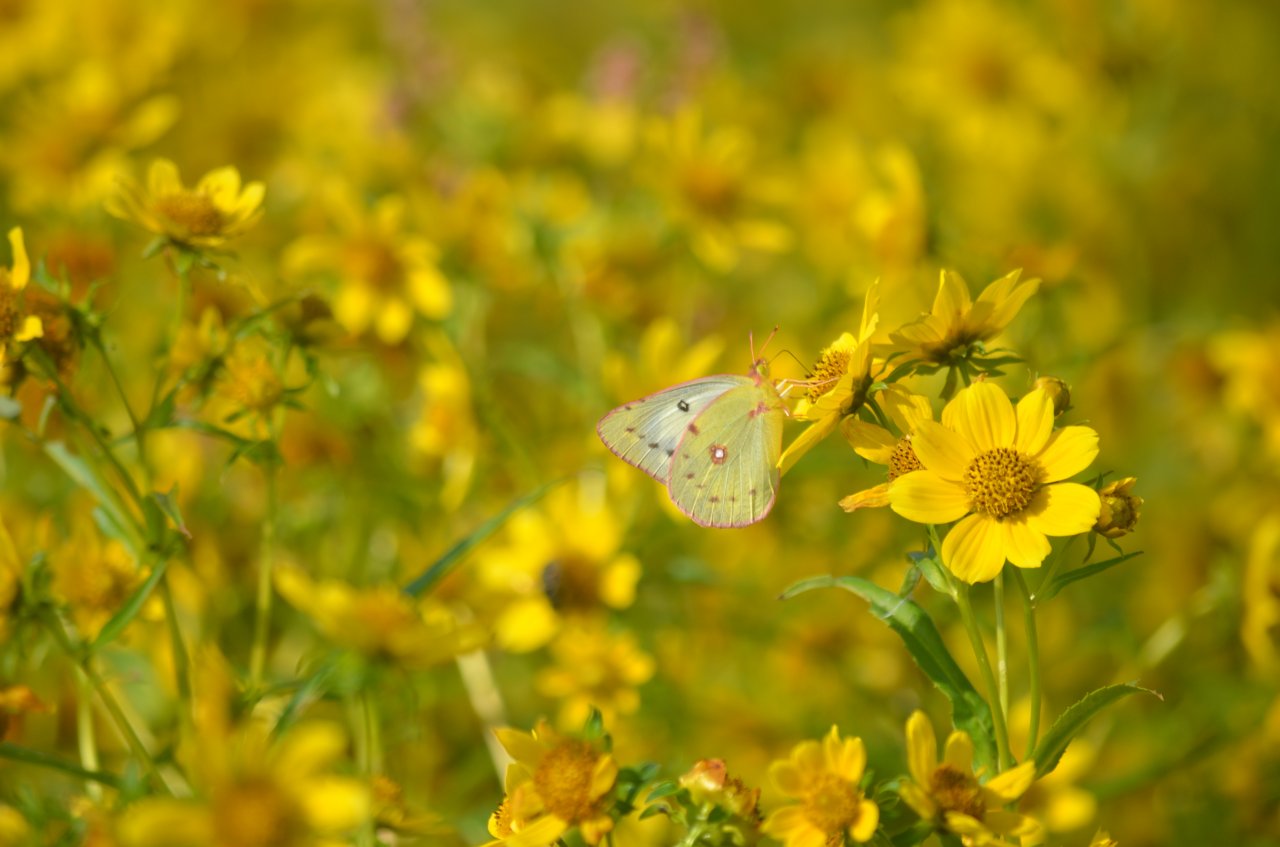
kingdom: Animalia
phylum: Arthropoda
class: Insecta
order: Lepidoptera
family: Pieridae
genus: Colias
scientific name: Colias philodice
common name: Clouded Sulphur
